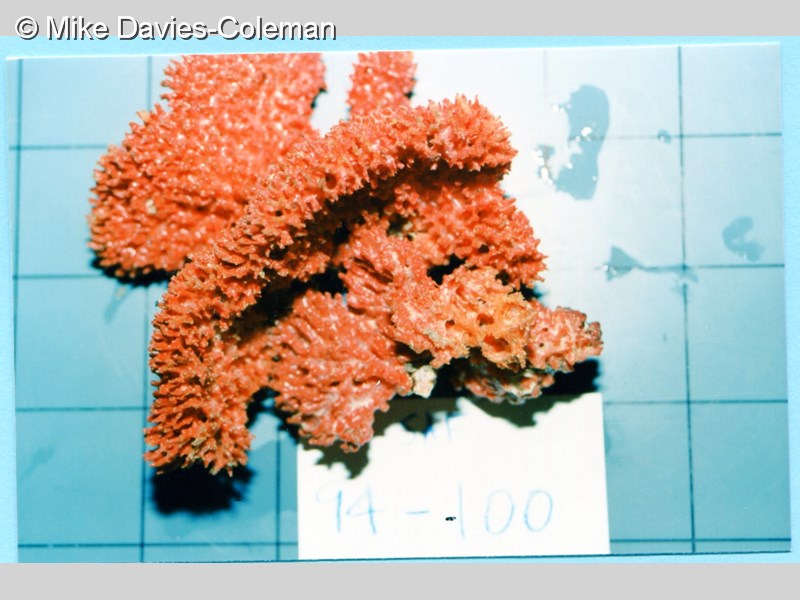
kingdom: Animalia
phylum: Porifera
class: Demospongiae
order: Poecilosclerida
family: Microcionidae
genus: Clathria
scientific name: Clathria vulpina
